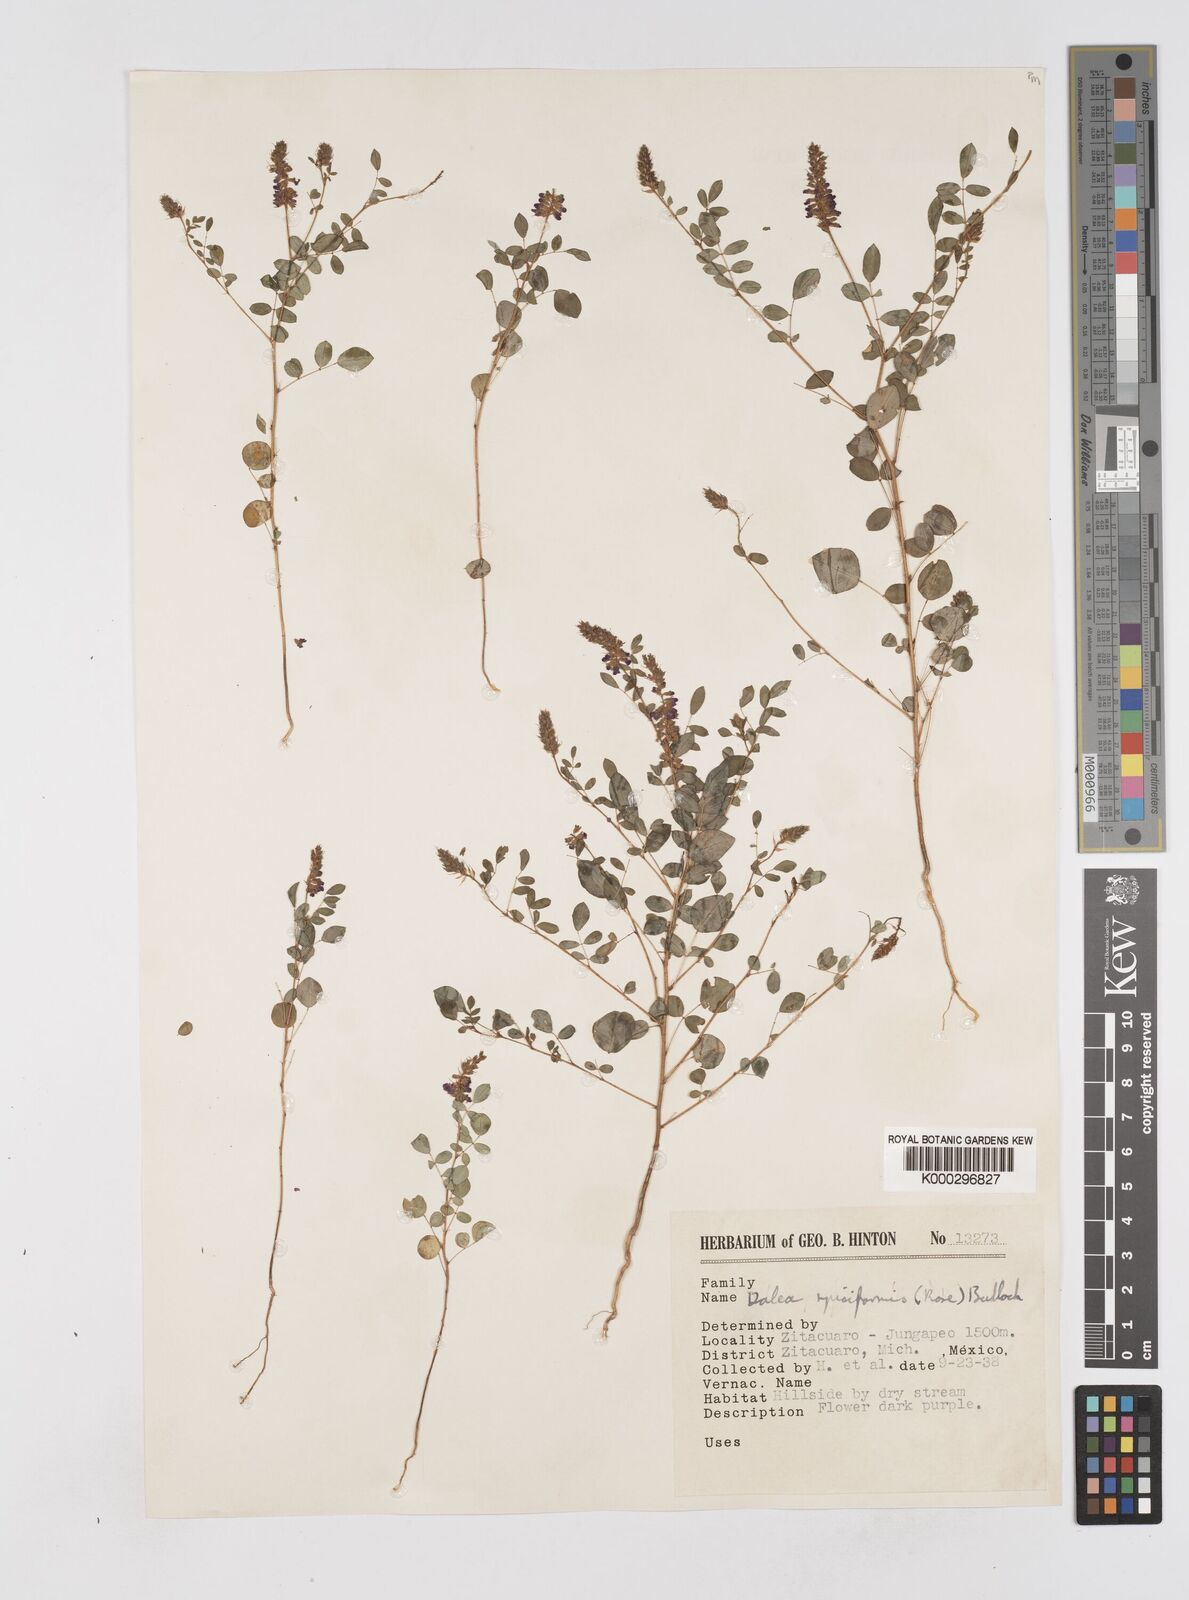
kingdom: Plantae
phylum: Tracheophyta
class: Magnoliopsida
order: Fabales
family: Fabaceae
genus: Marina
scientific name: Marina spiciformis
